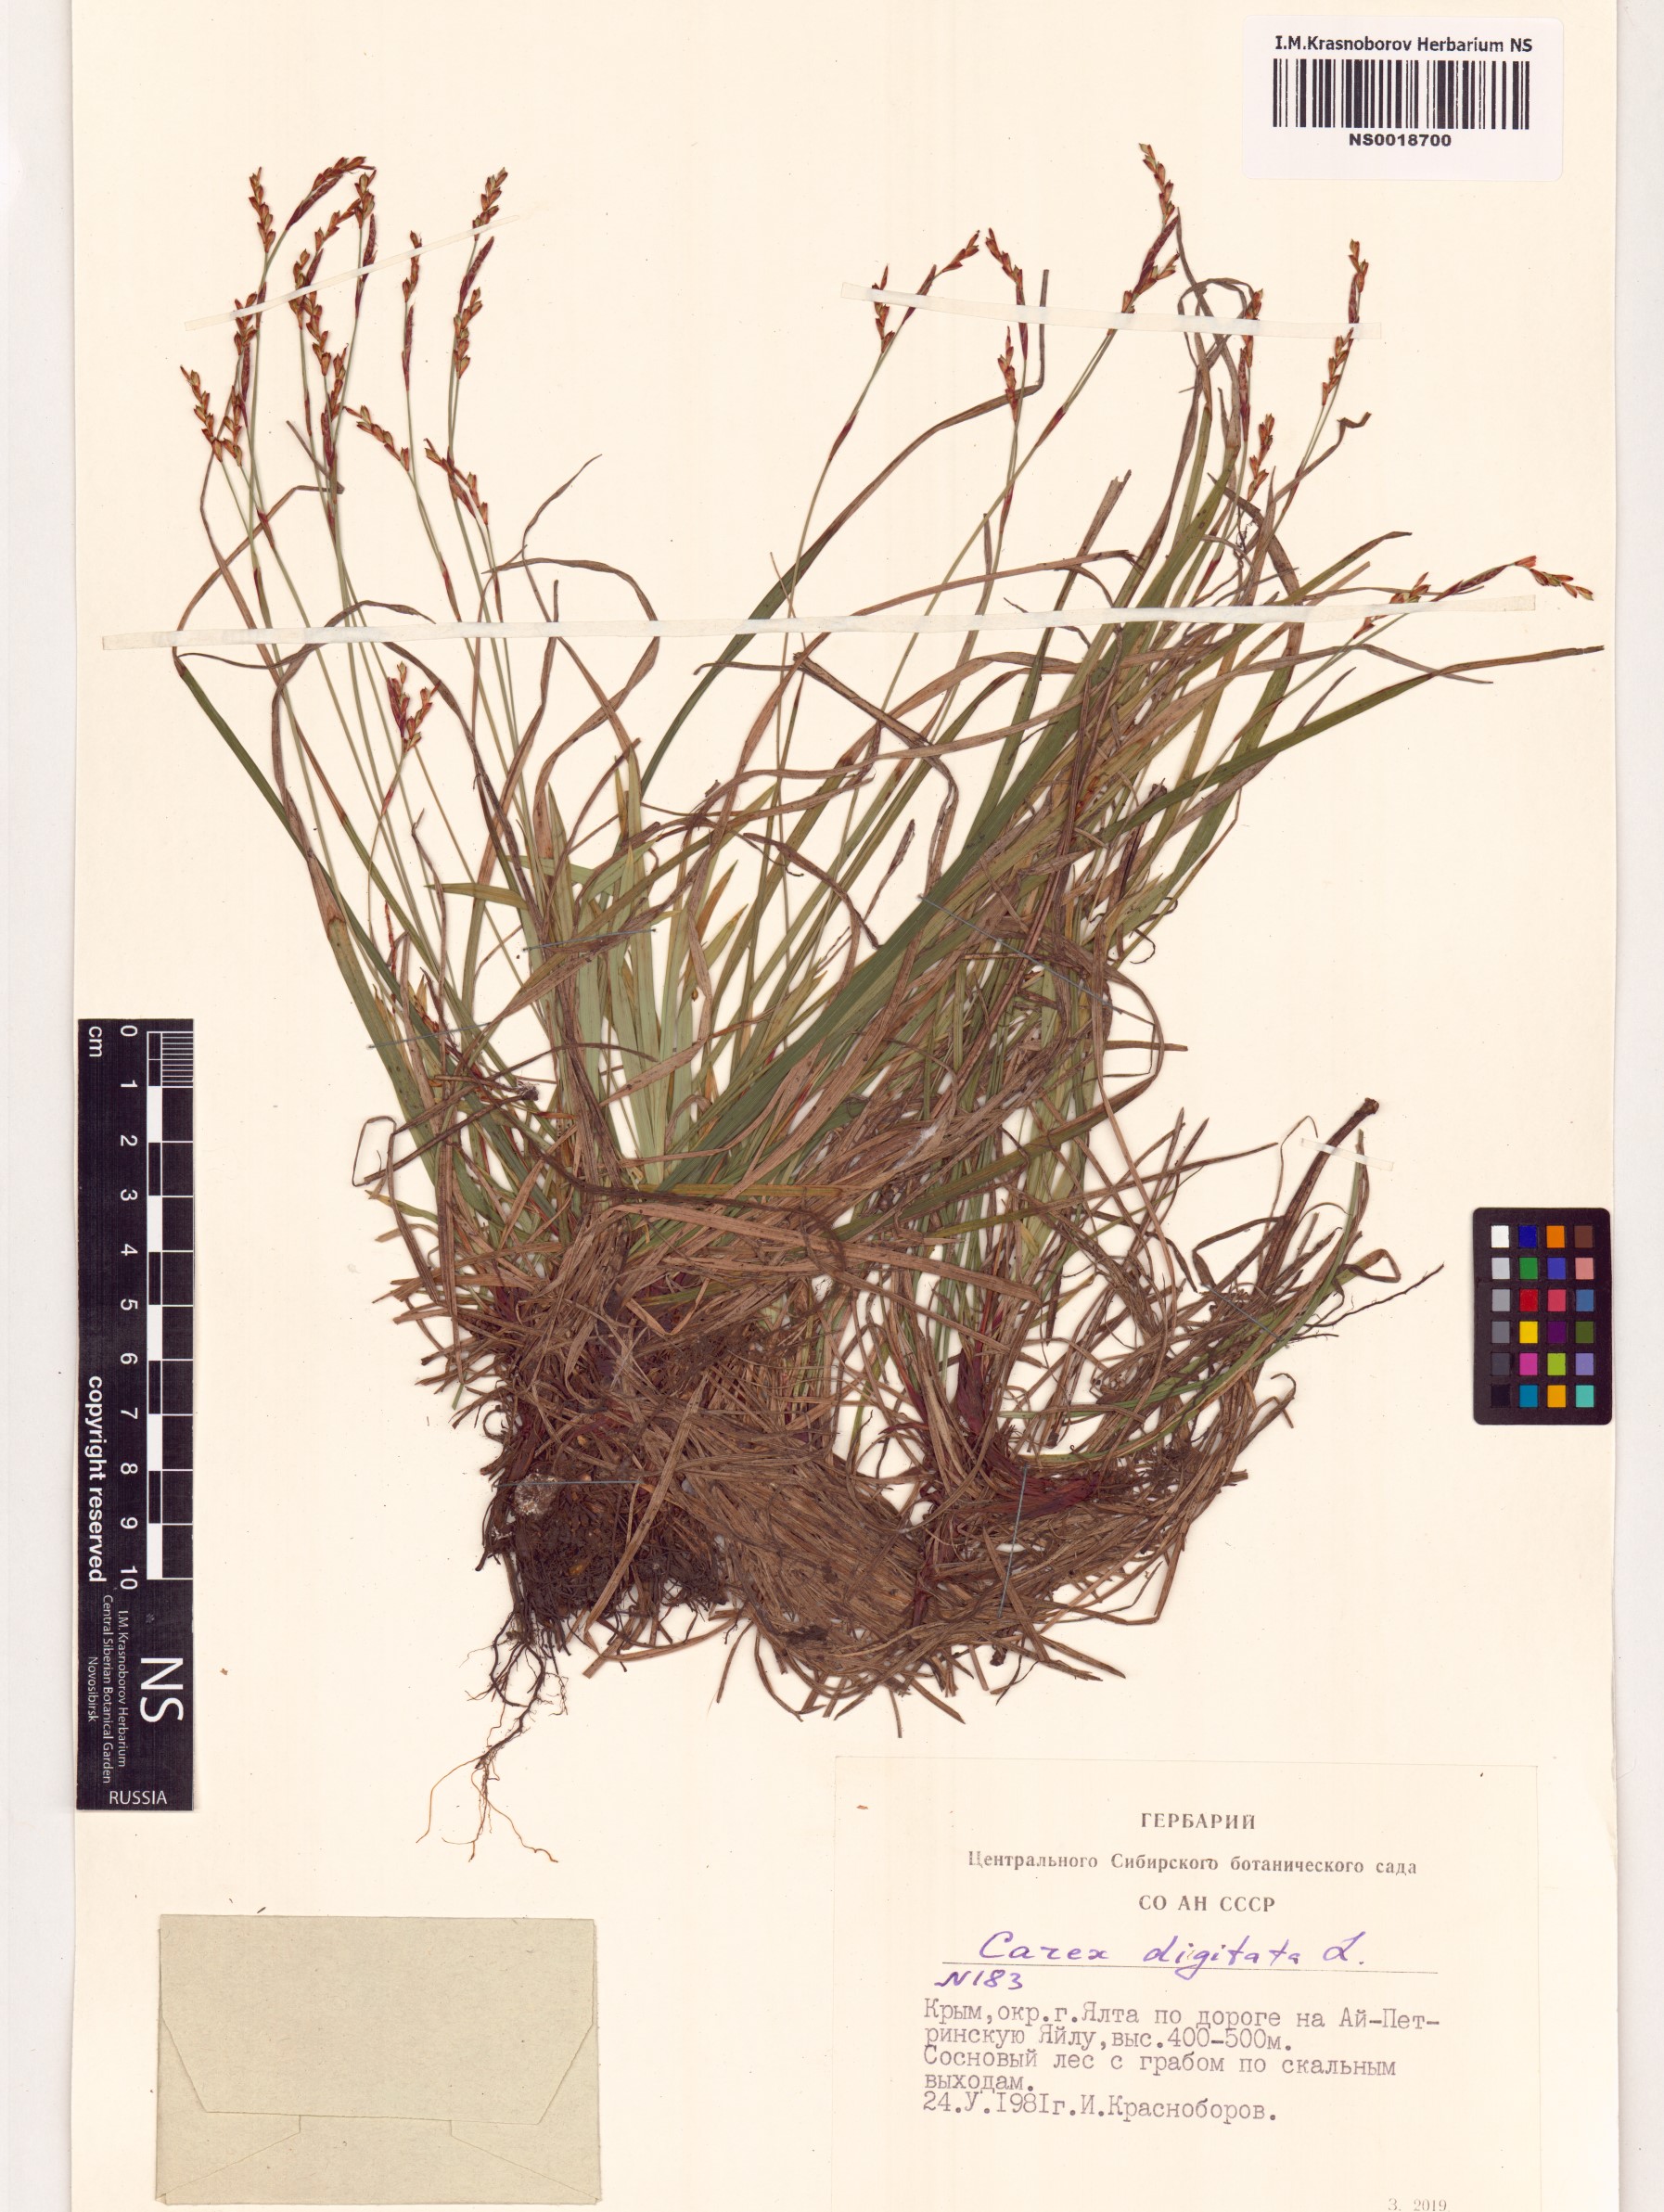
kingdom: Plantae
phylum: Tracheophyta
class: Liliopsida
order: Poales
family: Cyperaceae
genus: Carex
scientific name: Carex digitata
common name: Fingered sedge
